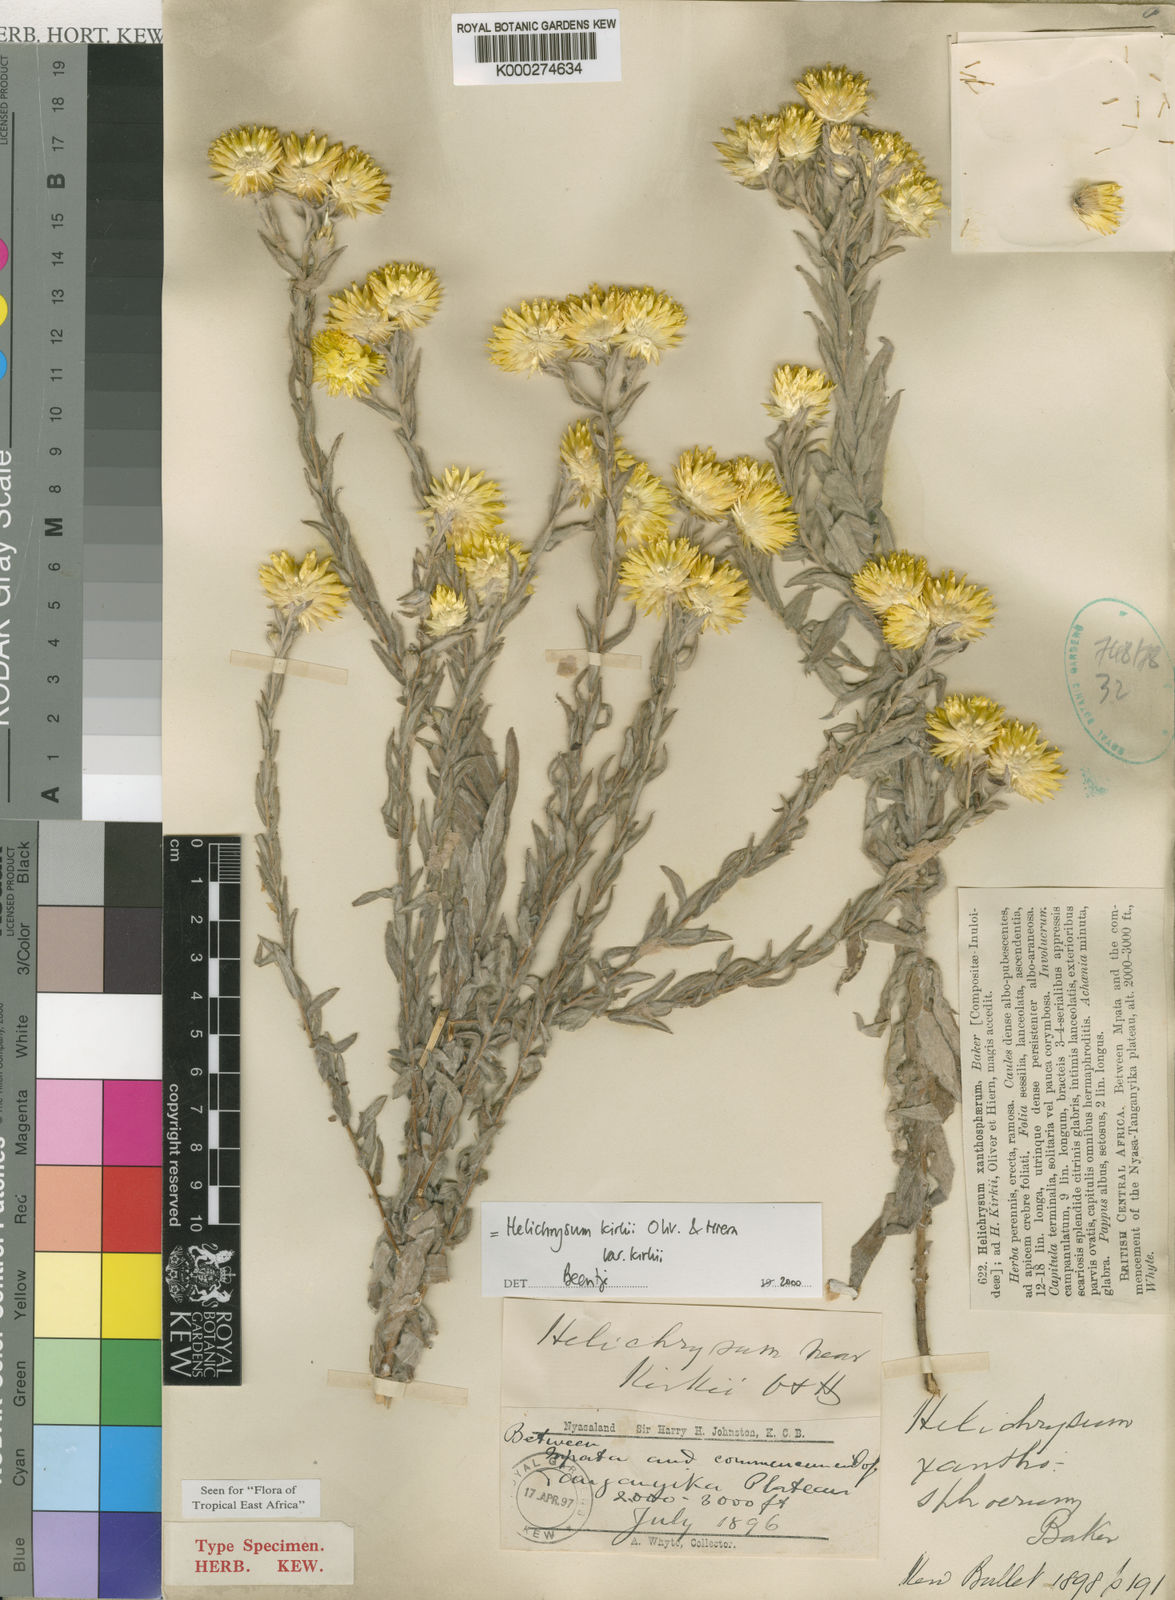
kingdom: Plantae
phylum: Tracheophyta
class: Magnoliopsida
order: Asterales
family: Asteraceae
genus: Helichrysum
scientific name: Helichrysum kirkii
